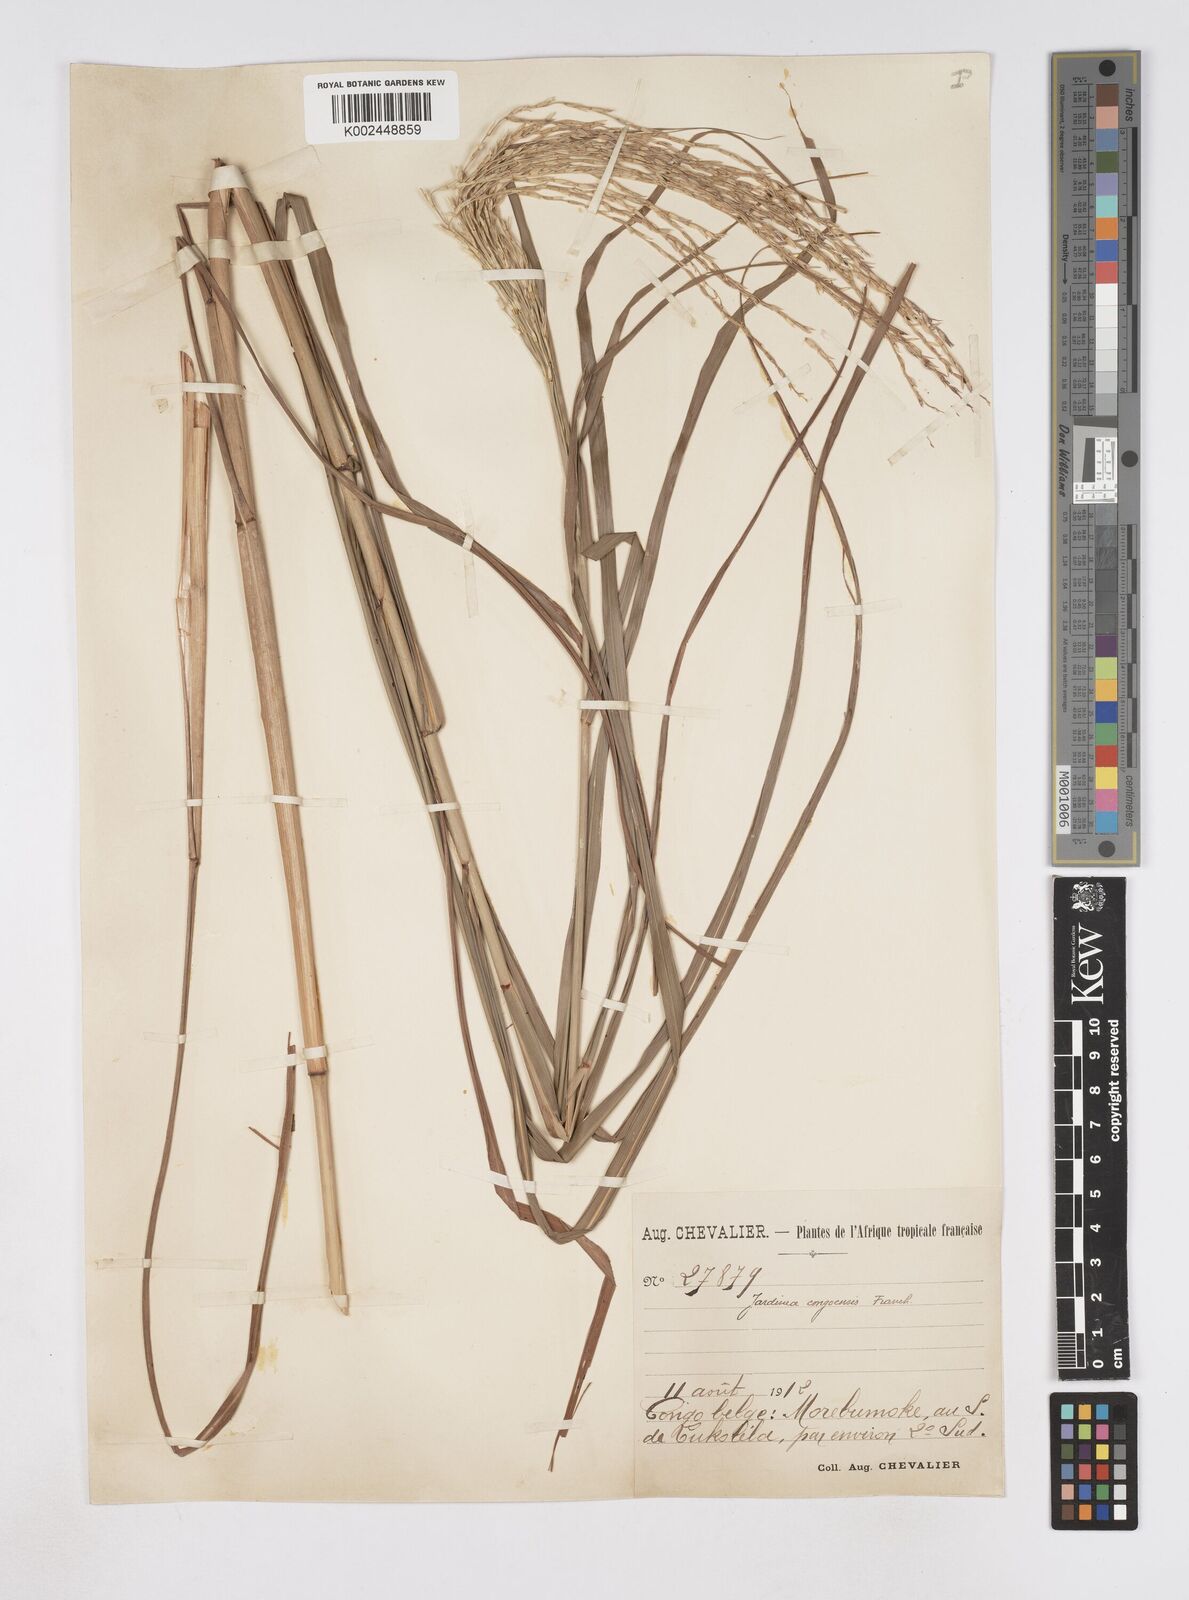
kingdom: Plantae
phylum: Tracheophyta
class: Liliopsida
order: Poales
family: Poaceae
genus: Phacelurus
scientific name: Phacelurus gabonensis
